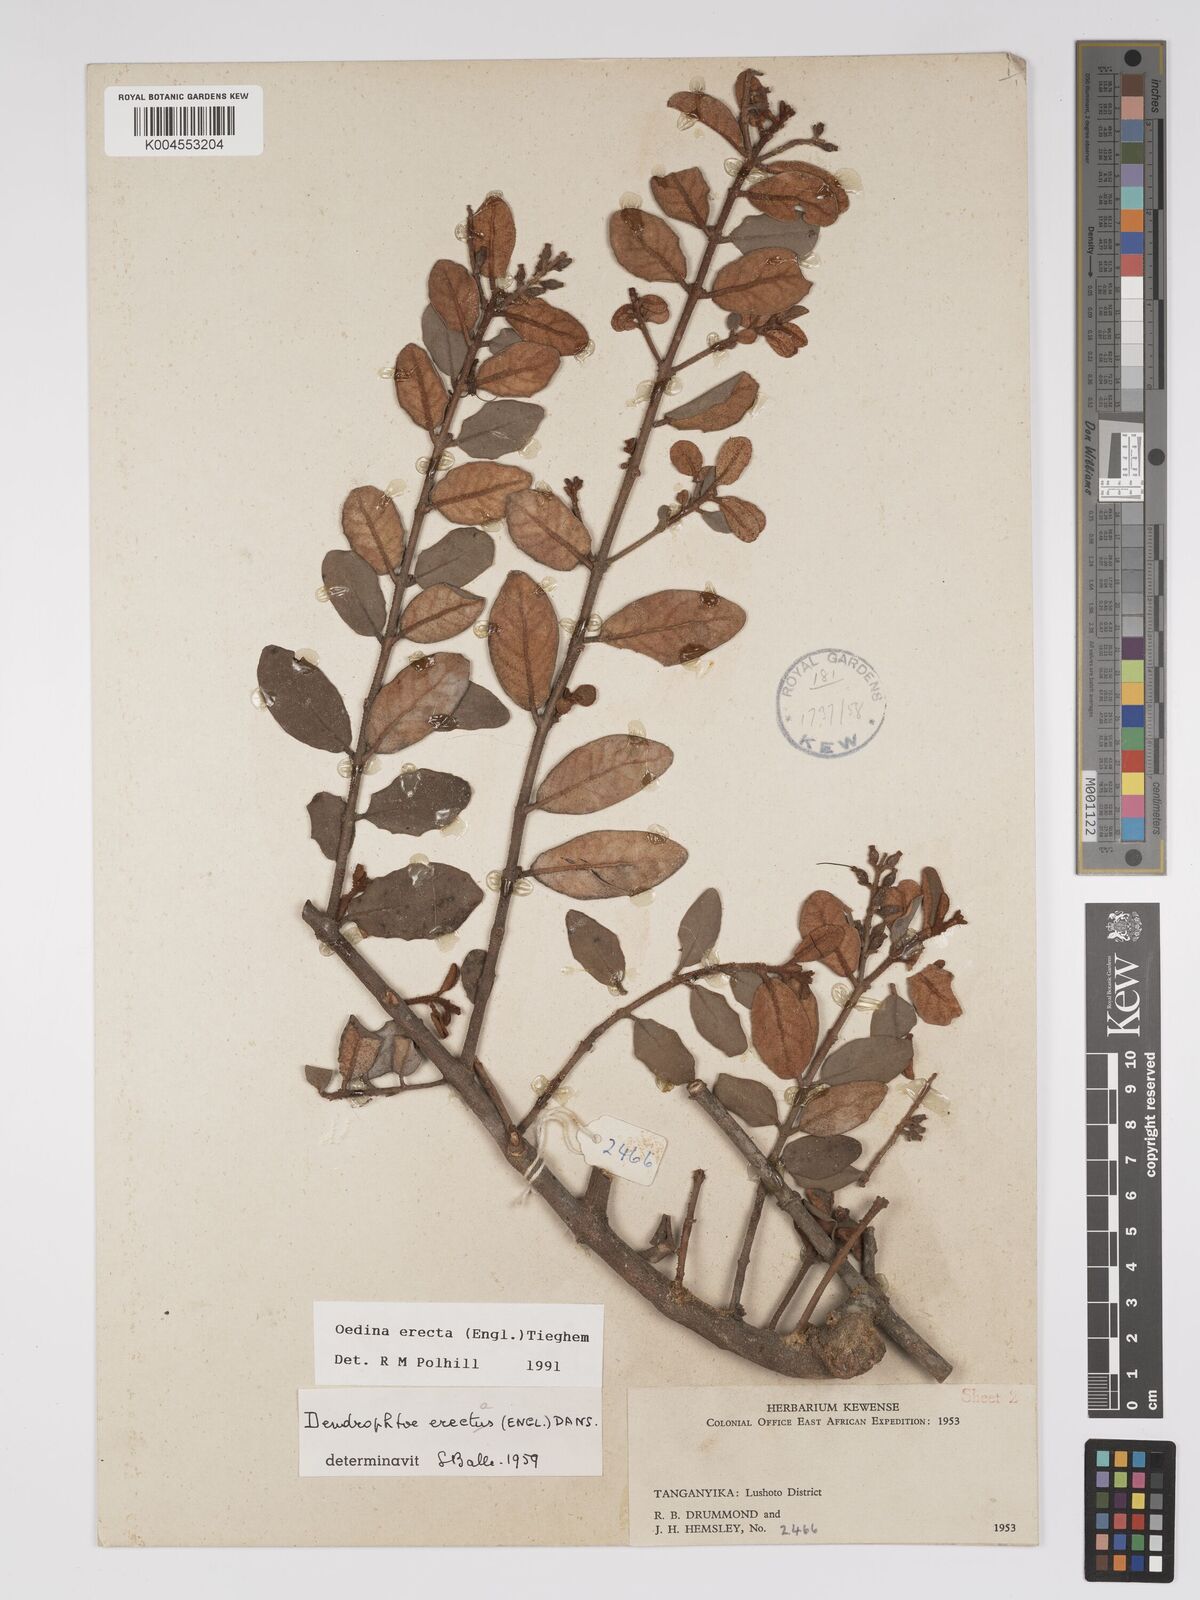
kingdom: Plantae
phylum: Tracheophyta
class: Magnoliopsida
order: Santalales
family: Loranthaceae
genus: Oedina
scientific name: Oedina erecta
